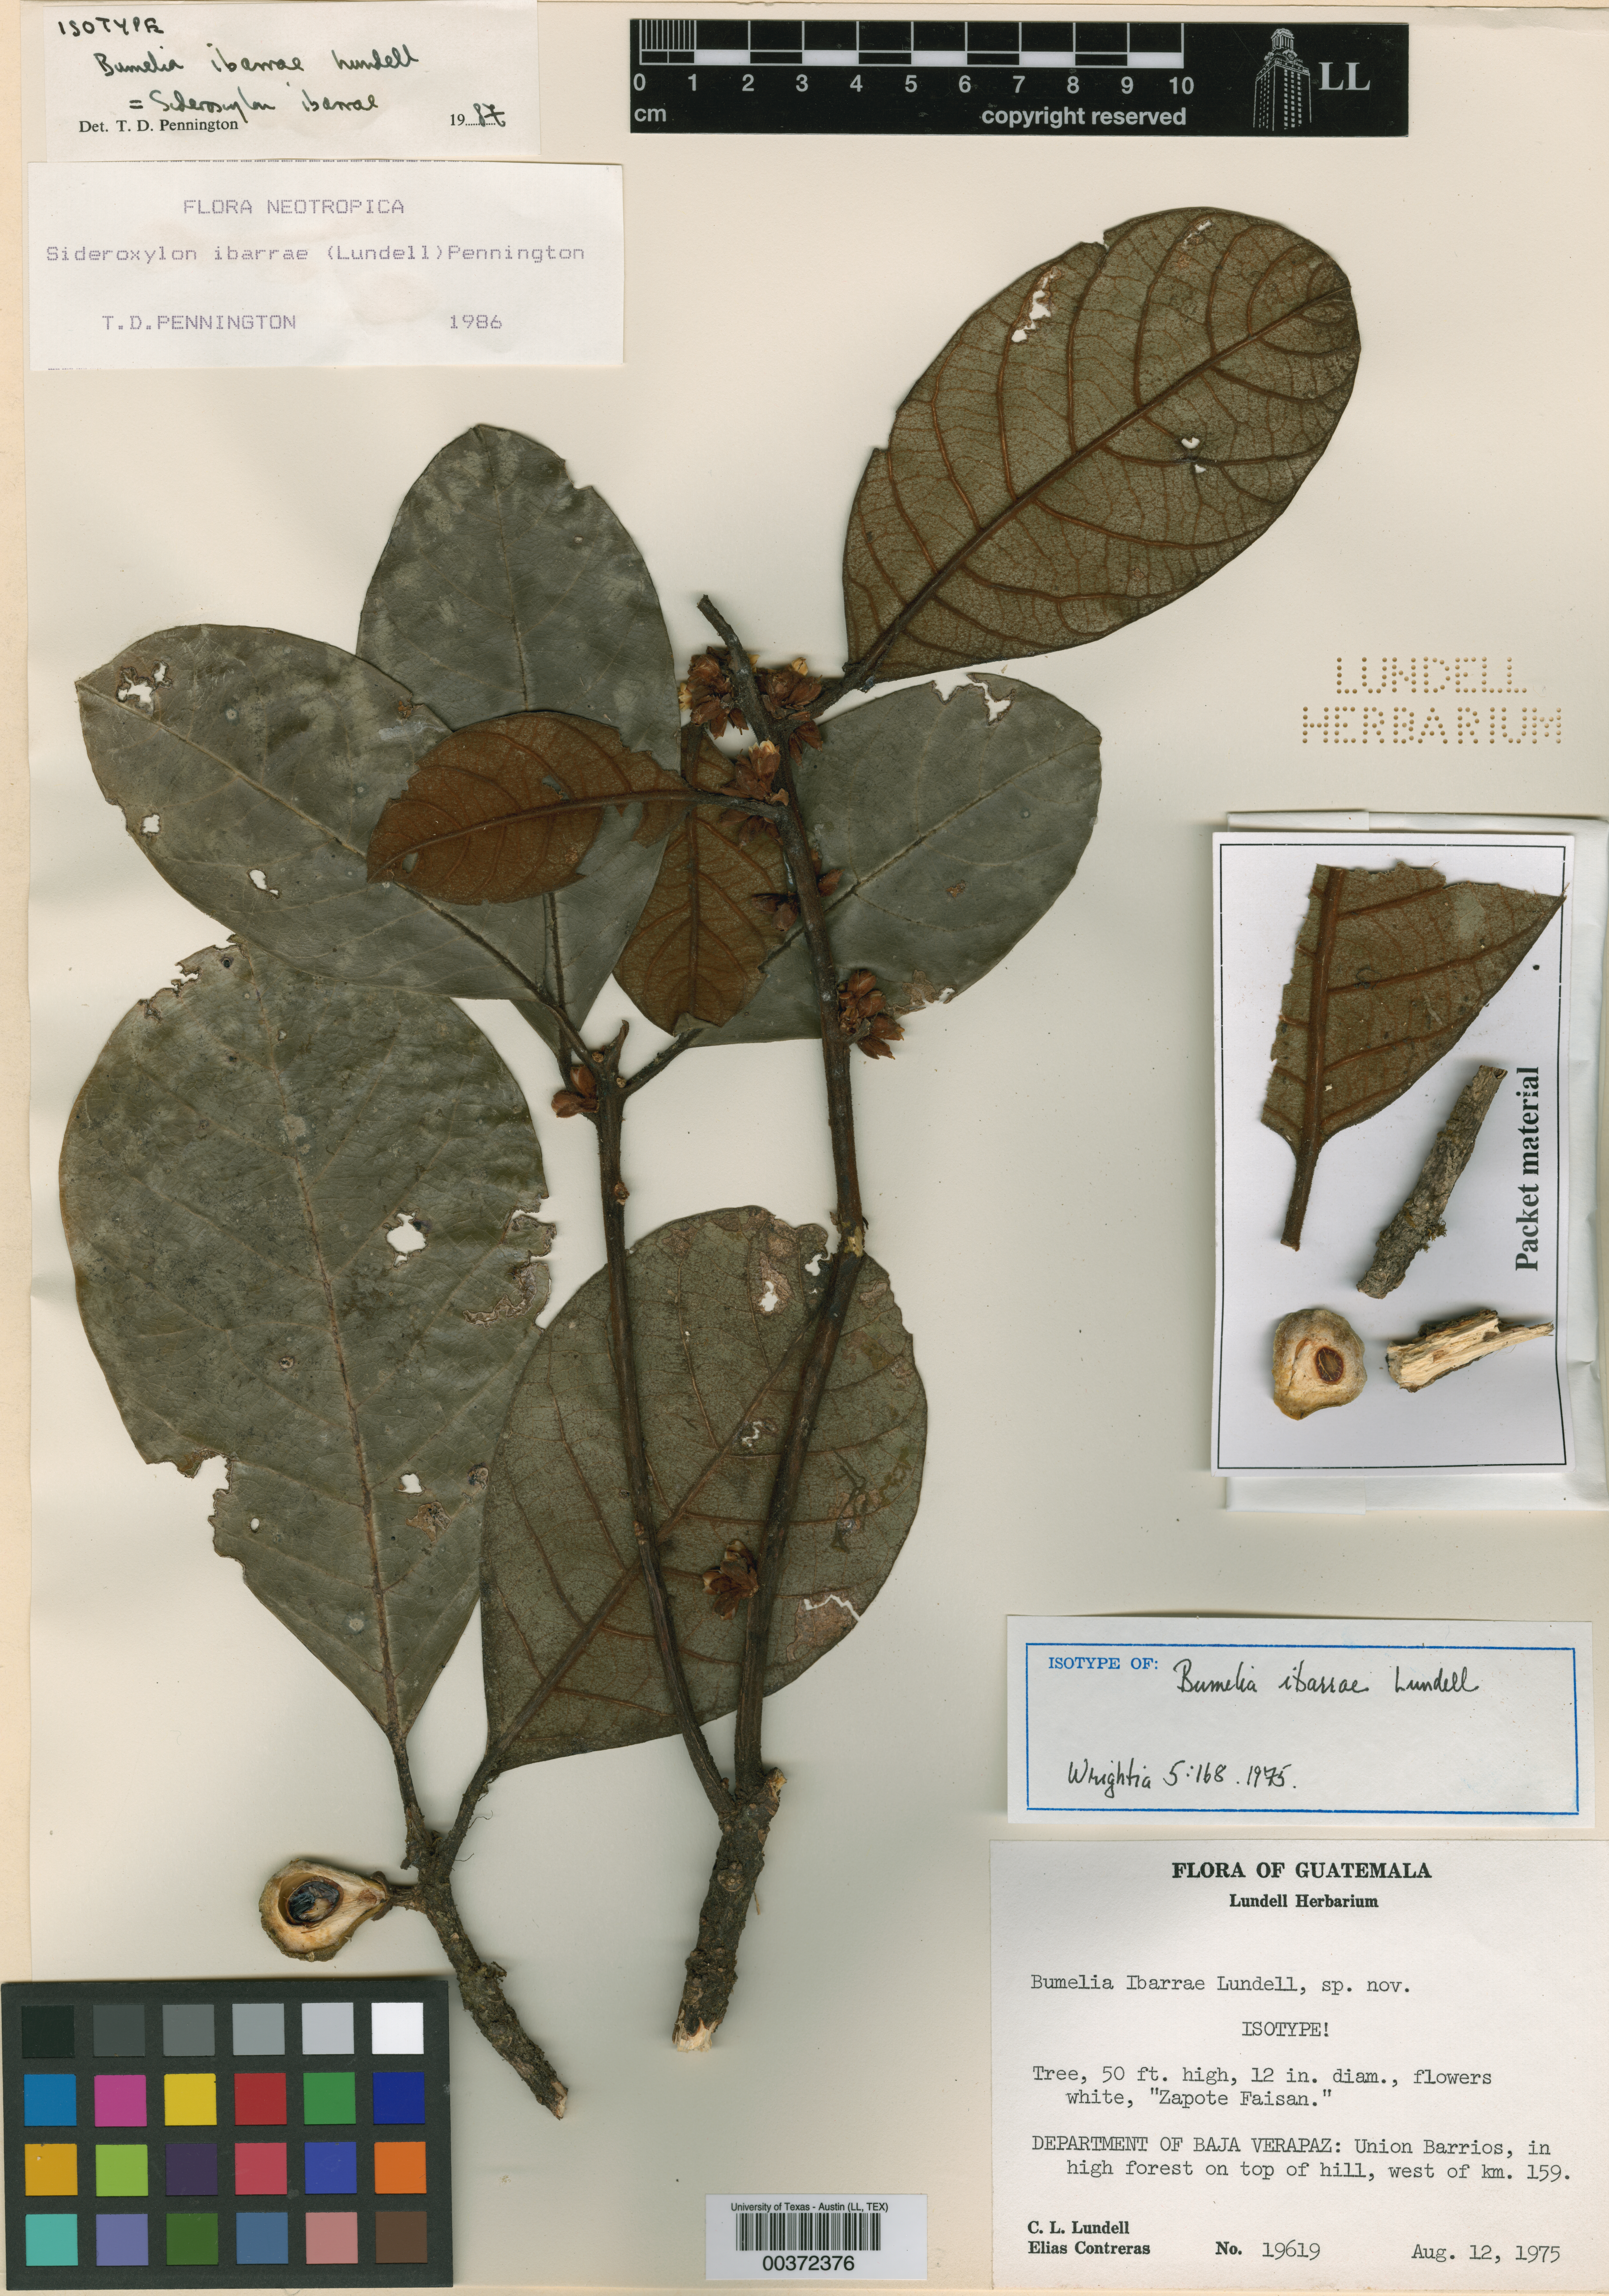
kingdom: Plantae
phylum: Tracheophyta
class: Magnoliopsida
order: Ericales
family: Sapotaceae
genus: Sideroxylon
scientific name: Sideroxylon ibarrae
